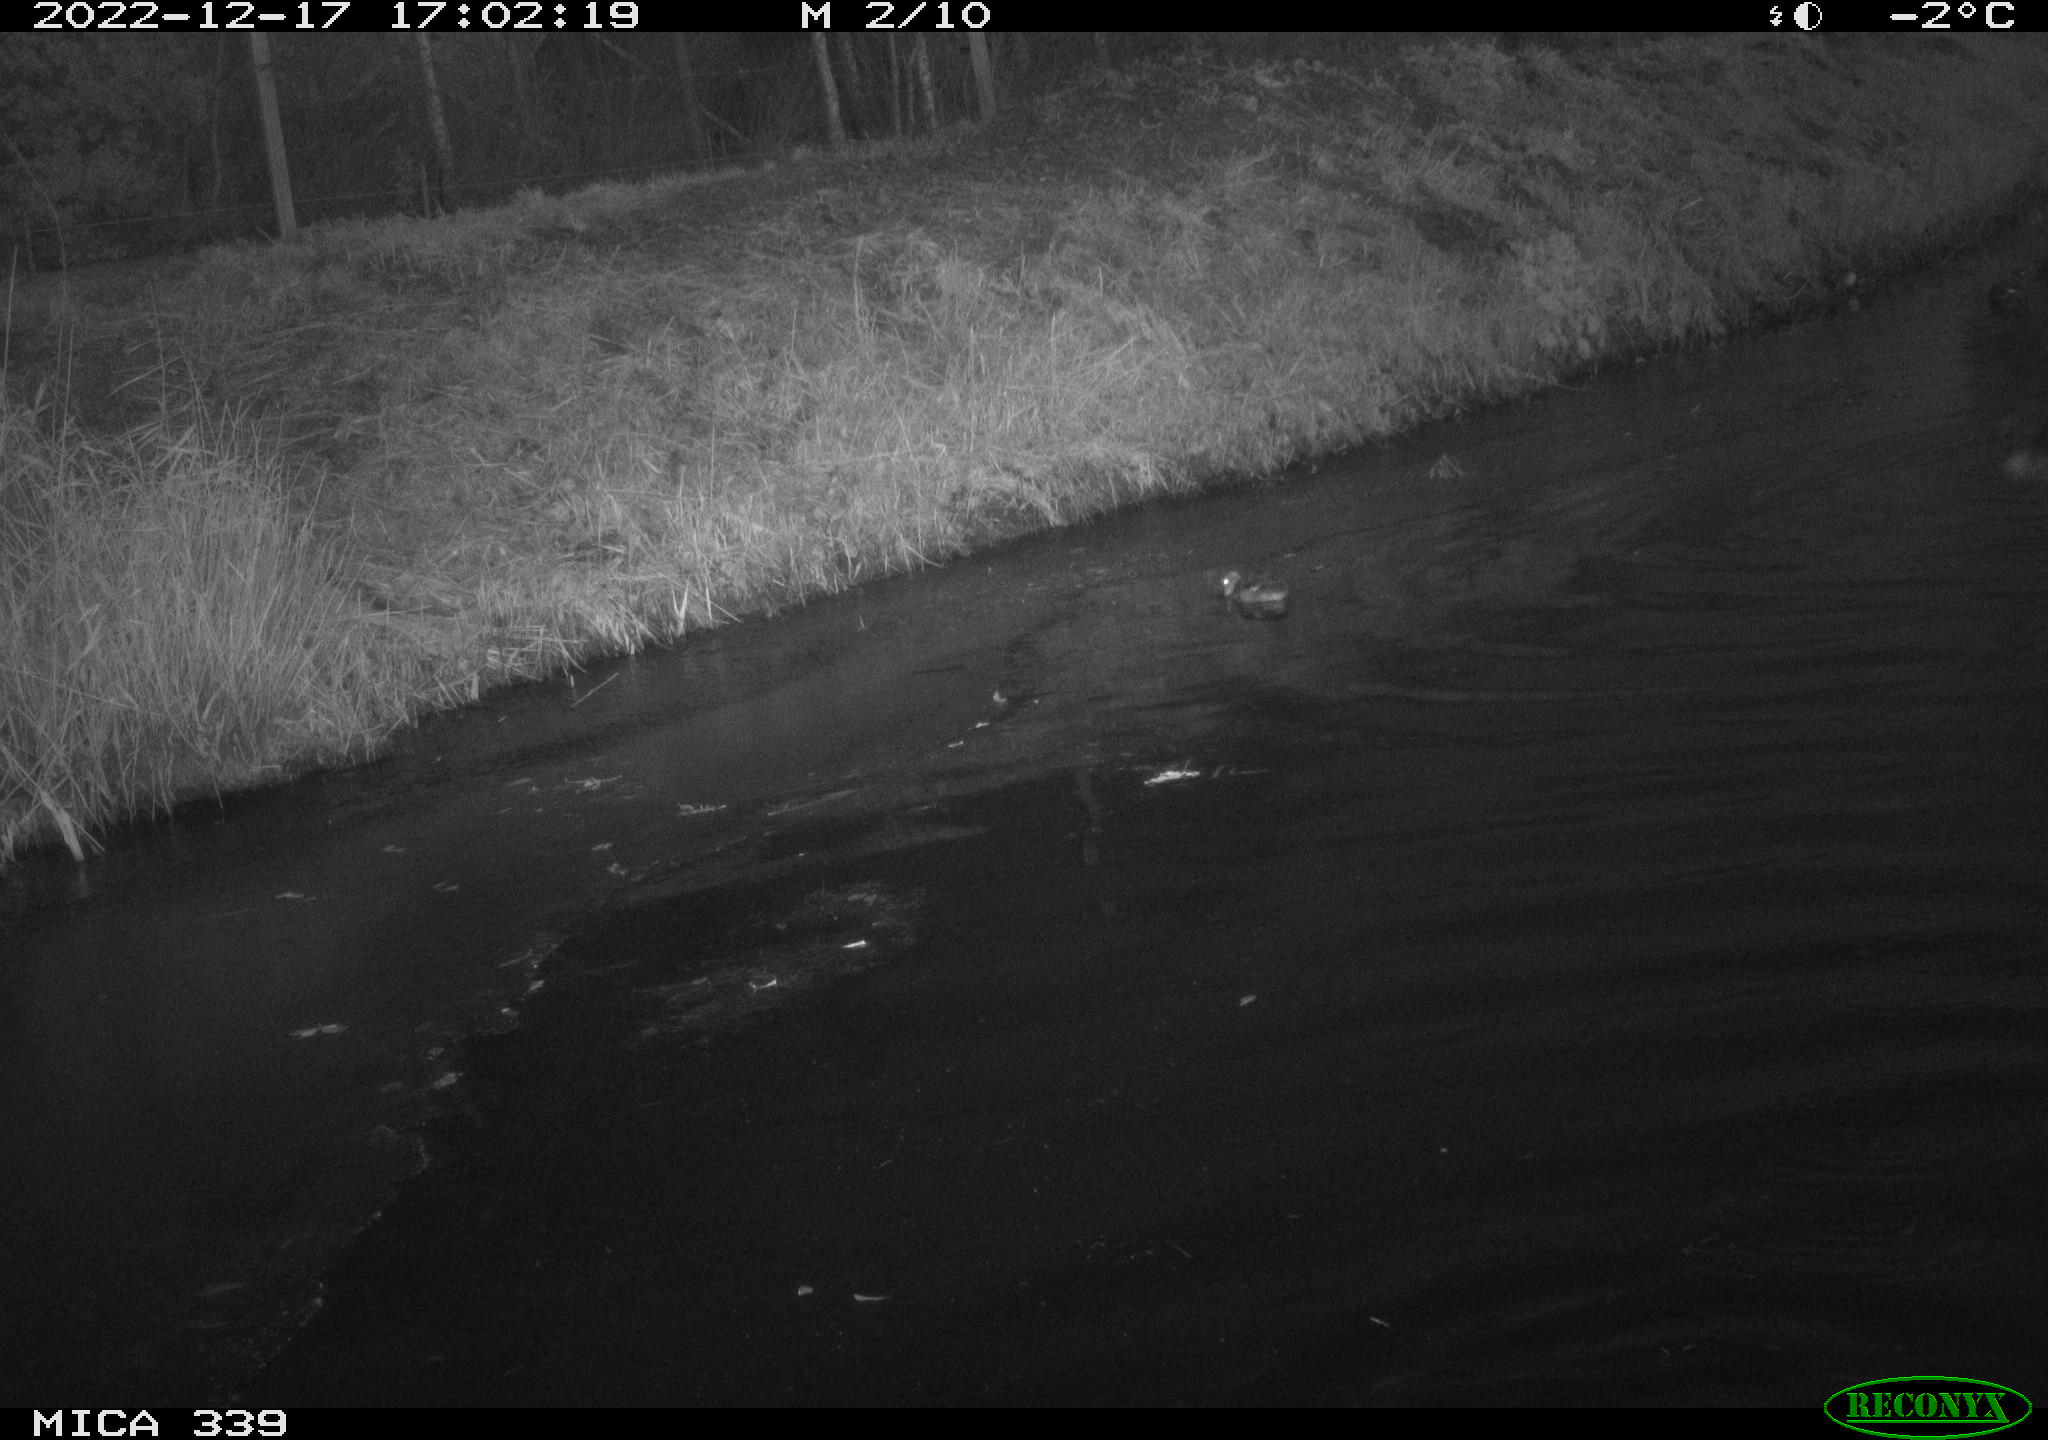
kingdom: Animalia
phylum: Chordata
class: Aves
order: Anseriformes
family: Anatidae
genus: Anas
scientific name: Anas
